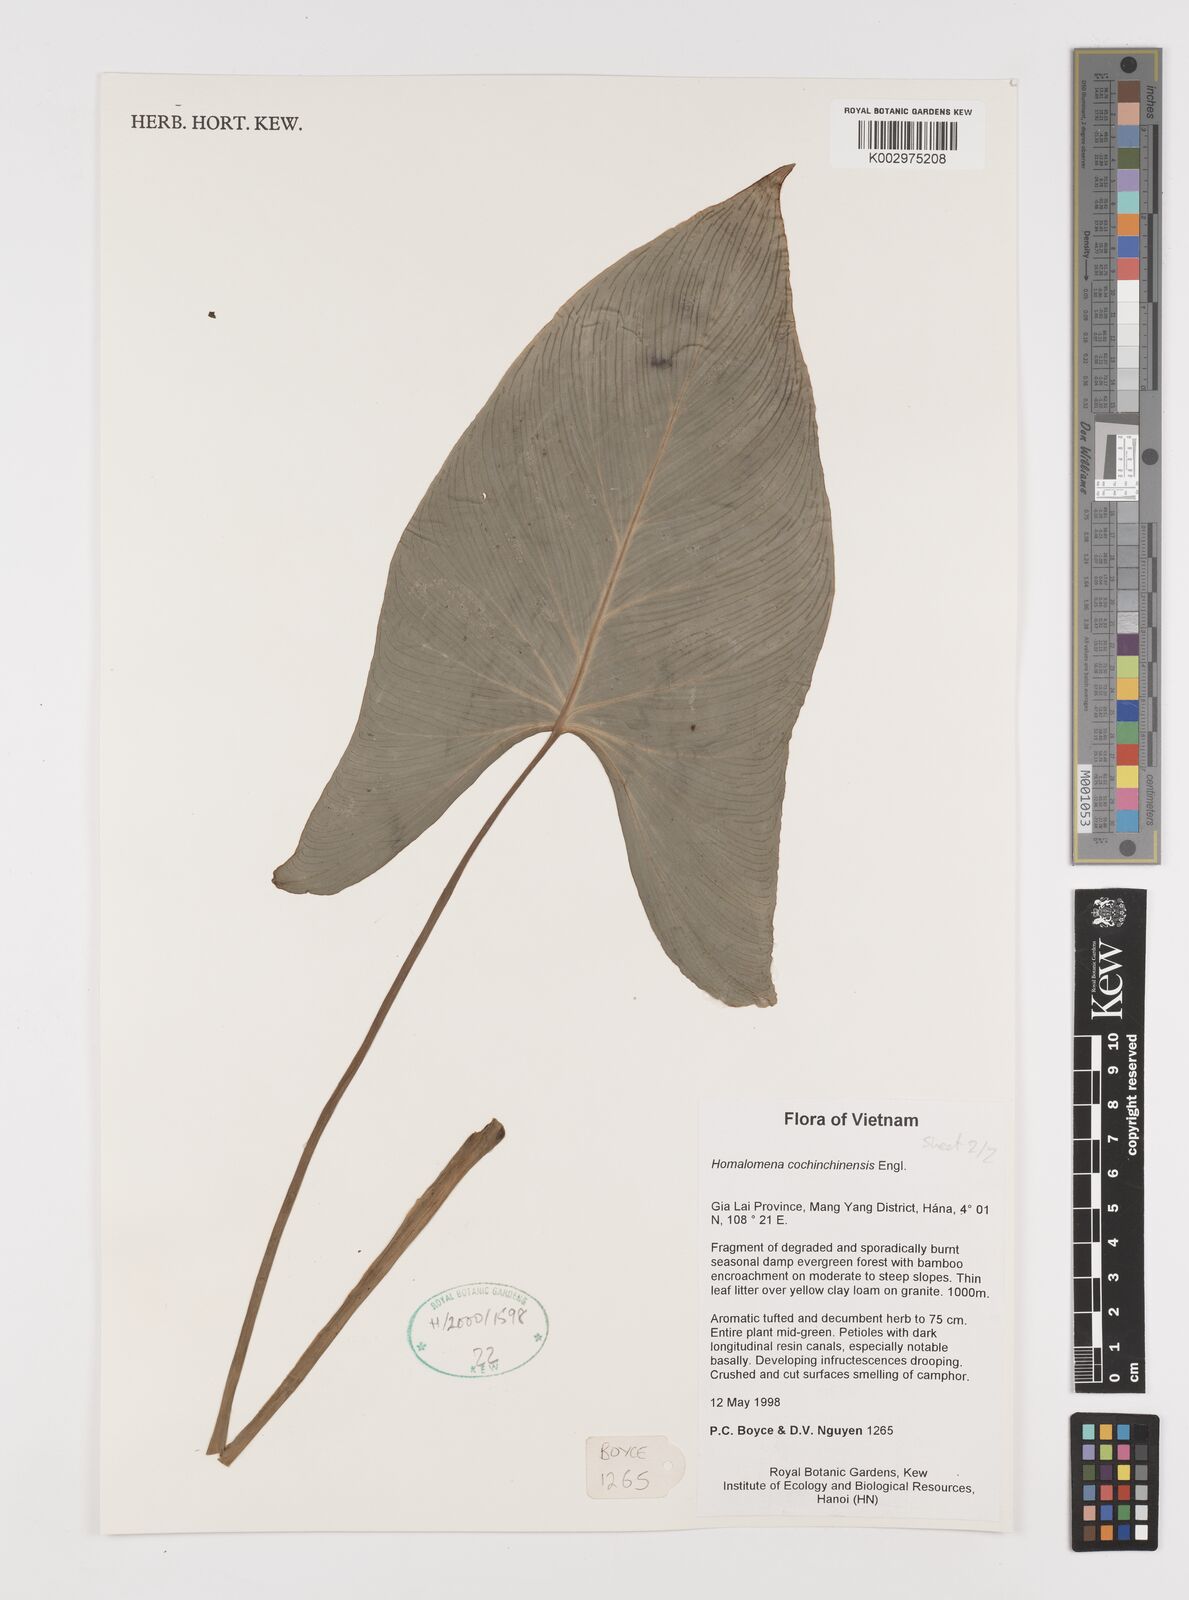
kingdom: Plantae
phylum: Tracheophyta
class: Liliopsida
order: Alismatales
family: Araceae
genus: Homalomena
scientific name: Homalomena cochinchinensis
